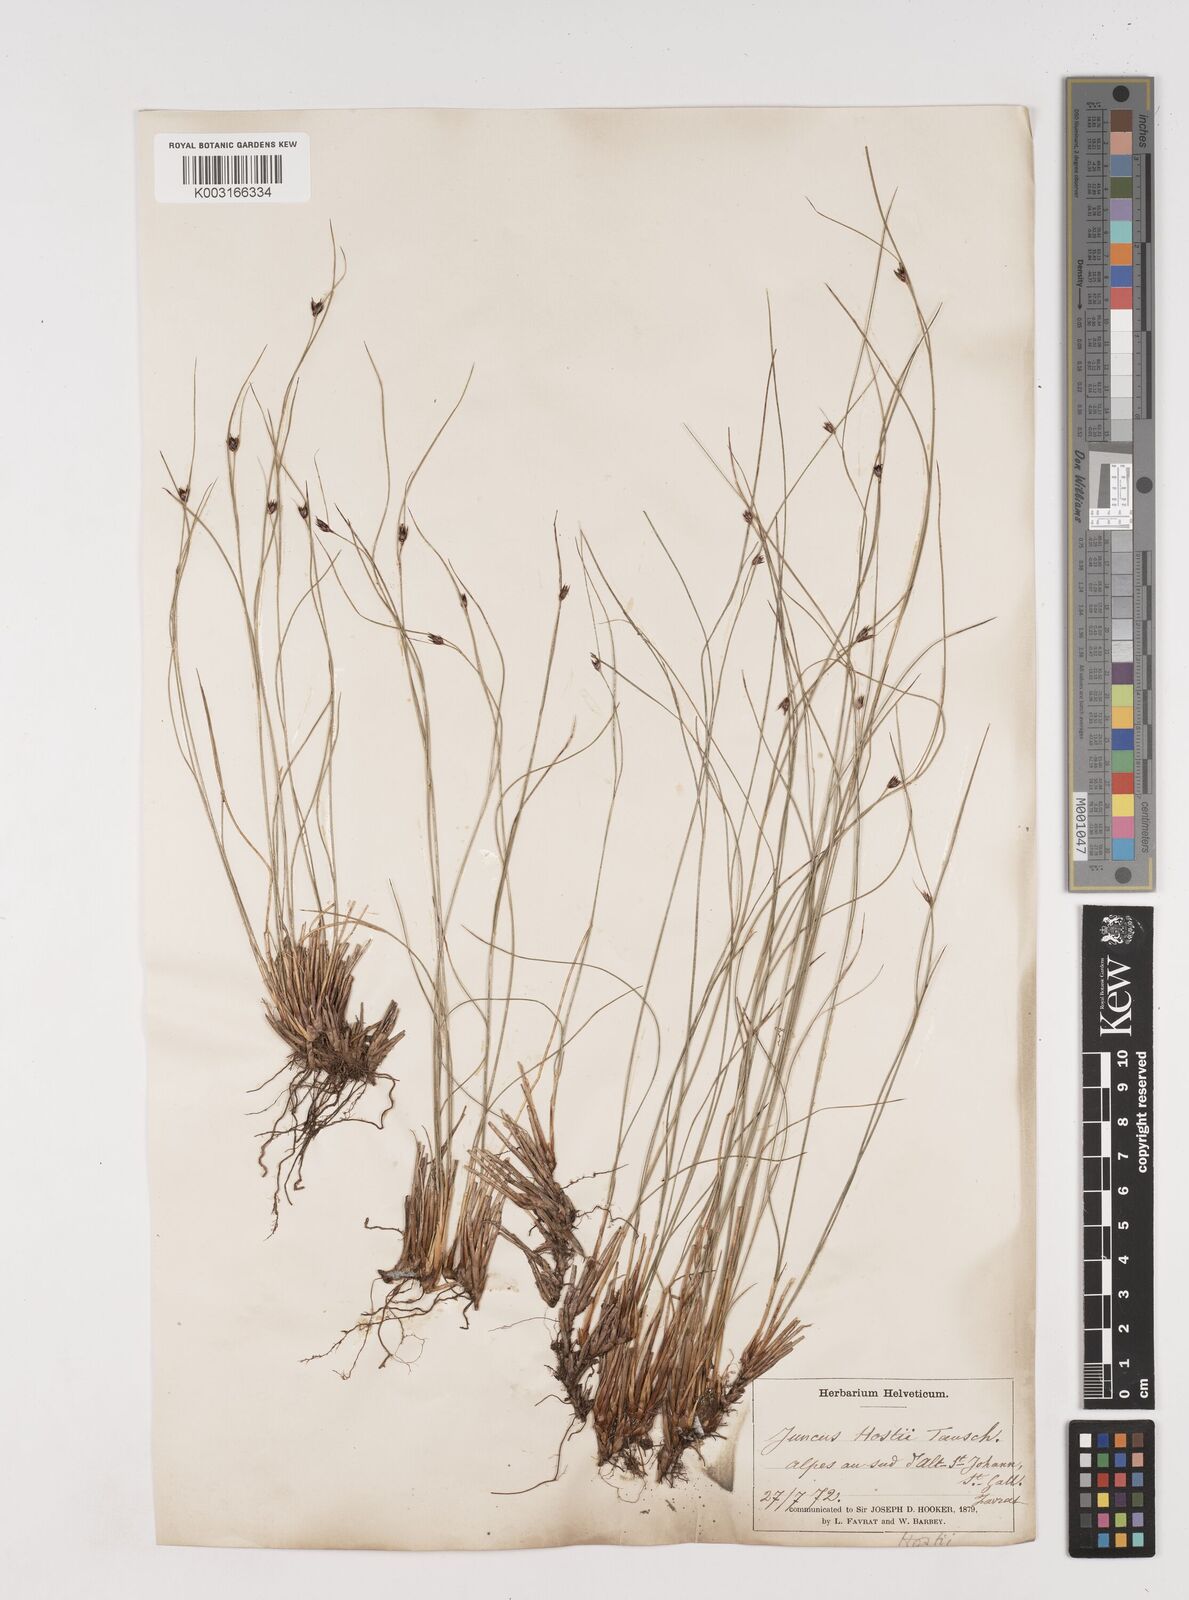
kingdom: Plantae
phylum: Tracheophyta
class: Liliopsida
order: Poales
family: Juncaceae
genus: Oreojuncus
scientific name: Oreojuncus trifidus
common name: Highland rush
